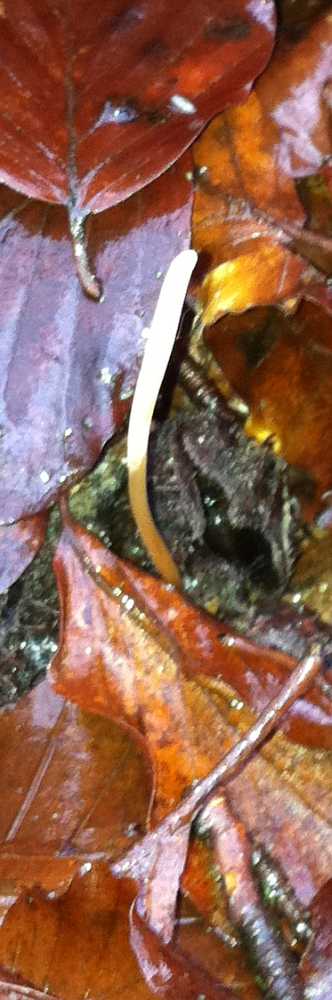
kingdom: Fungi
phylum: Basidiomycota
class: Agaricomycetes
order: Agaricales
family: Typhulaceae
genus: Typhula
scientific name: Typhula fistulosa
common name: pibet rørkølle
